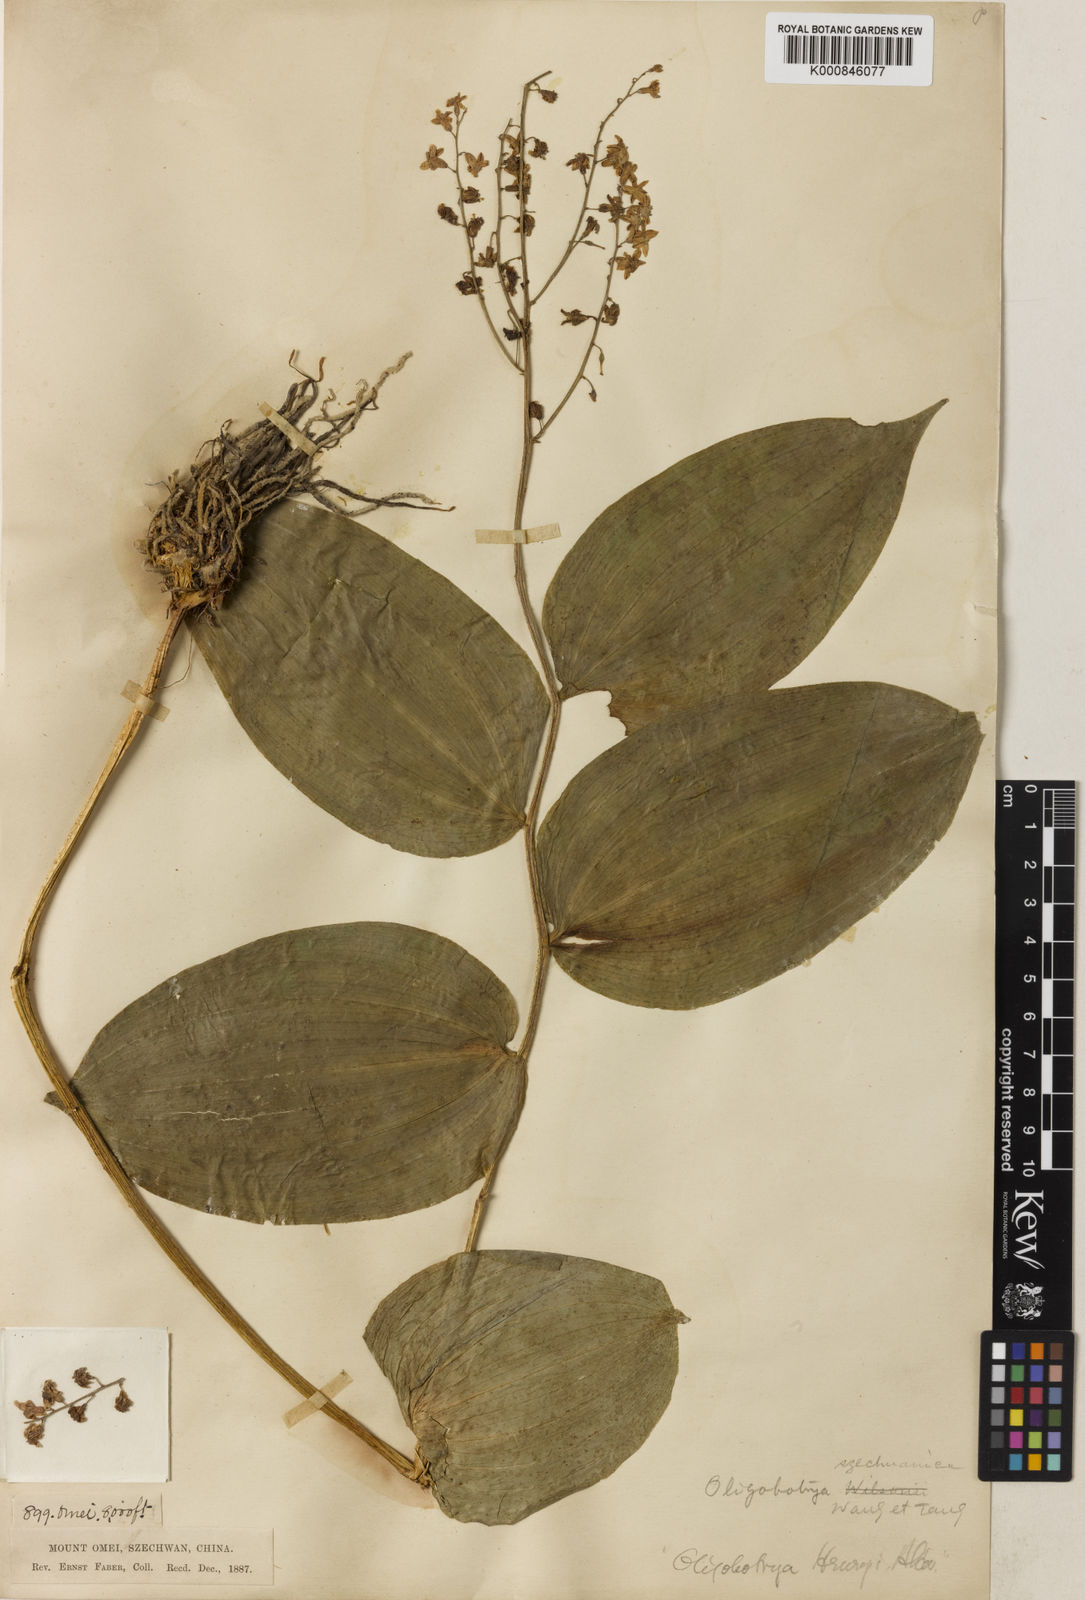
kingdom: Plantae
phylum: Tracheophyta
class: Liliopsida
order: Asparagales
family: Asparagaceae
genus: Maianthemum
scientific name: Maianthemum szechuanicum
